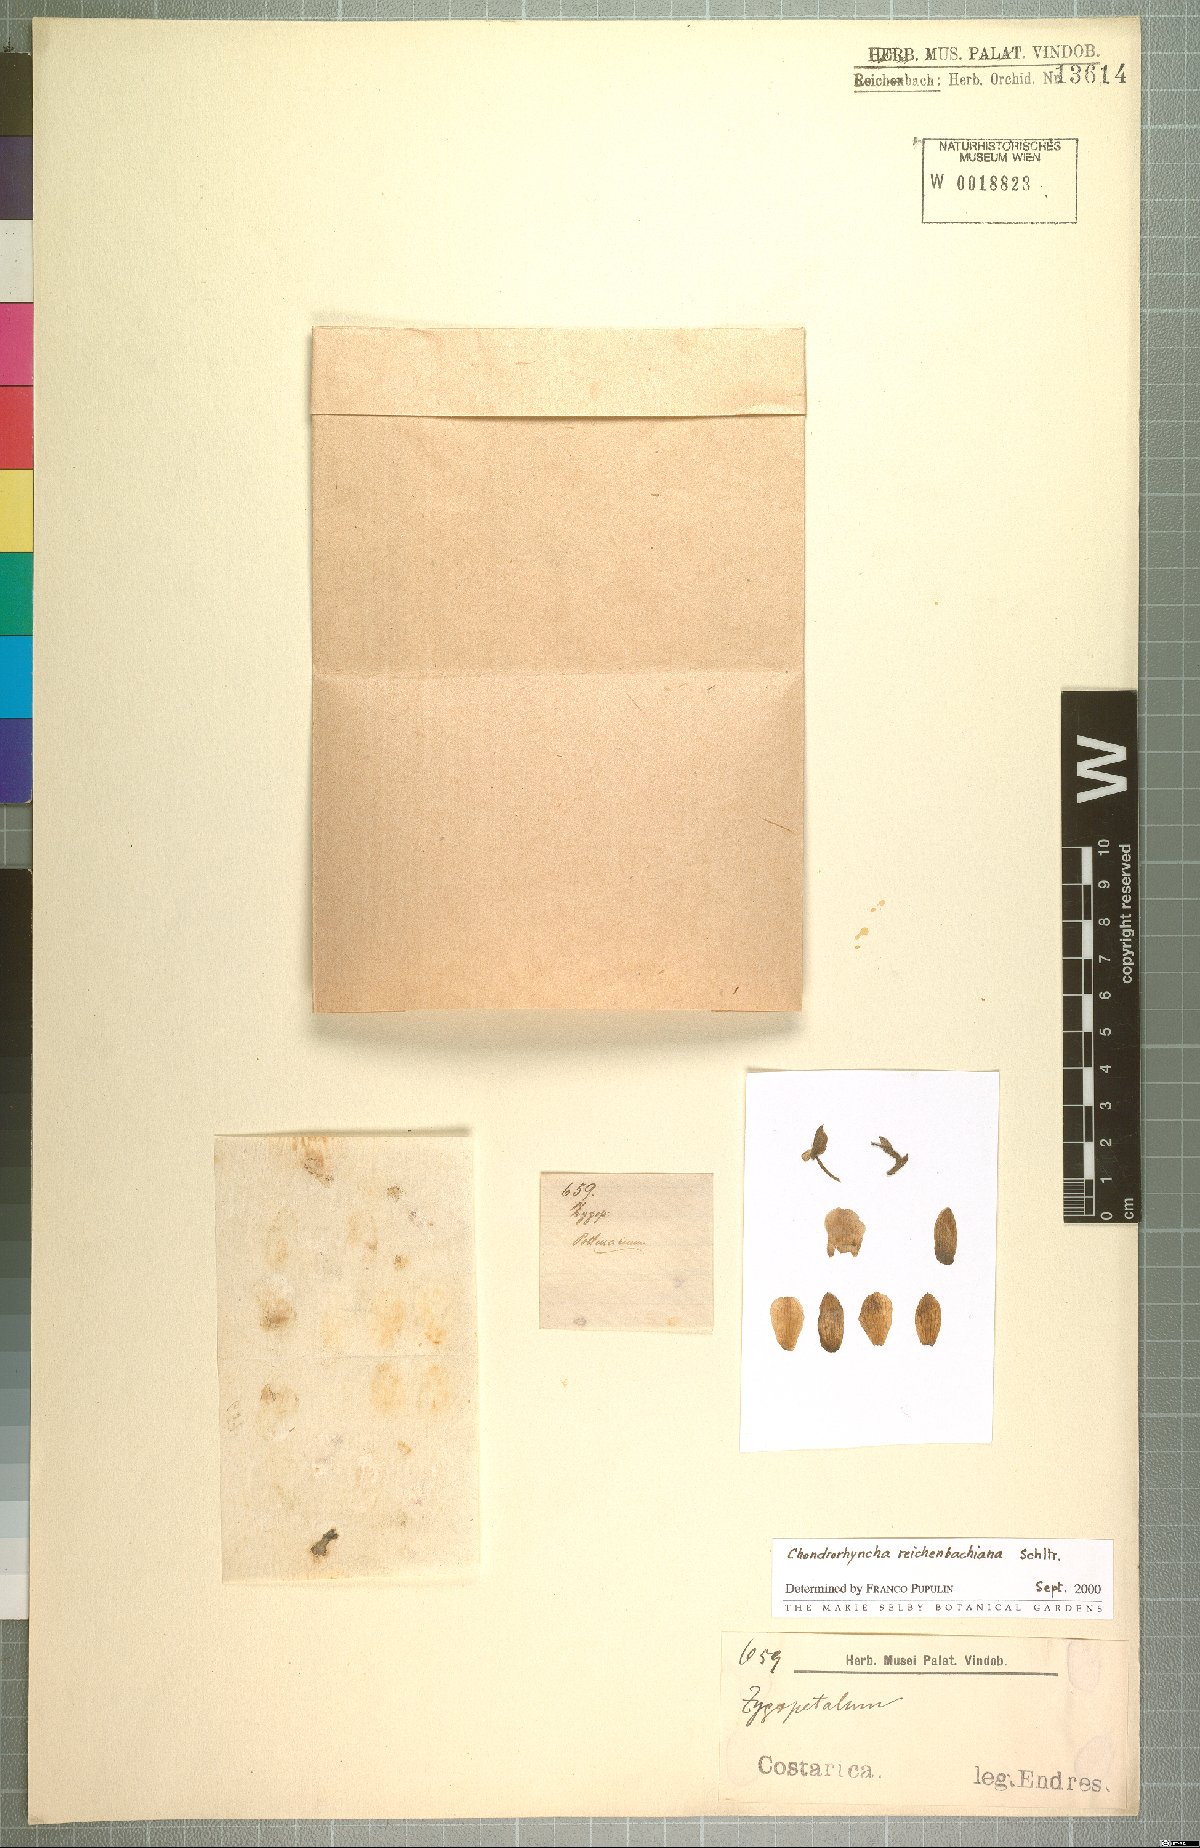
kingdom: Plantae
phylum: Tracheophyta
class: Liliopsida
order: Asparagales
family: Orchidaceae
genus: Cochleanthes
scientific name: Cochleanthes aromatica
